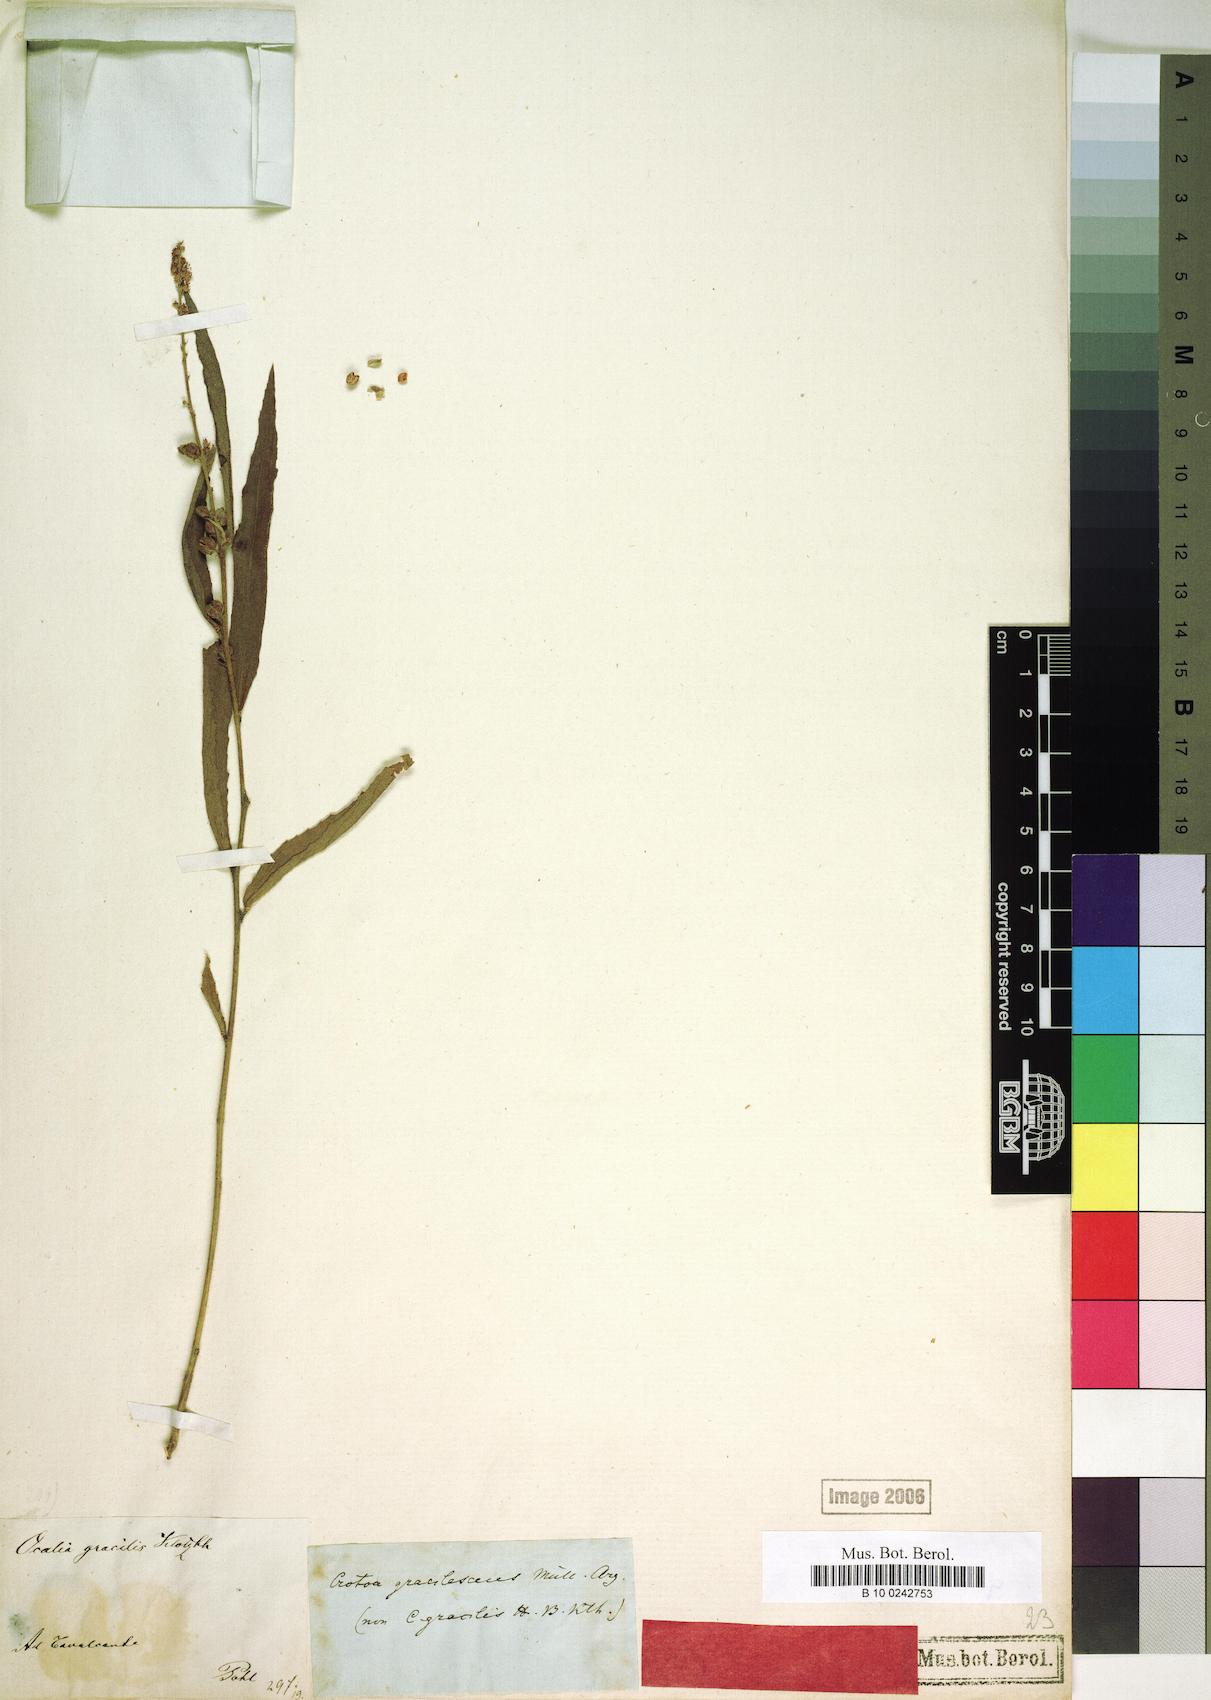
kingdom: Plantae
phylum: Tracheophyta
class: Magnoliopsida
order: Malpighiales
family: Euphorbiaceae
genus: Croton
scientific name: Croton gracilescens
